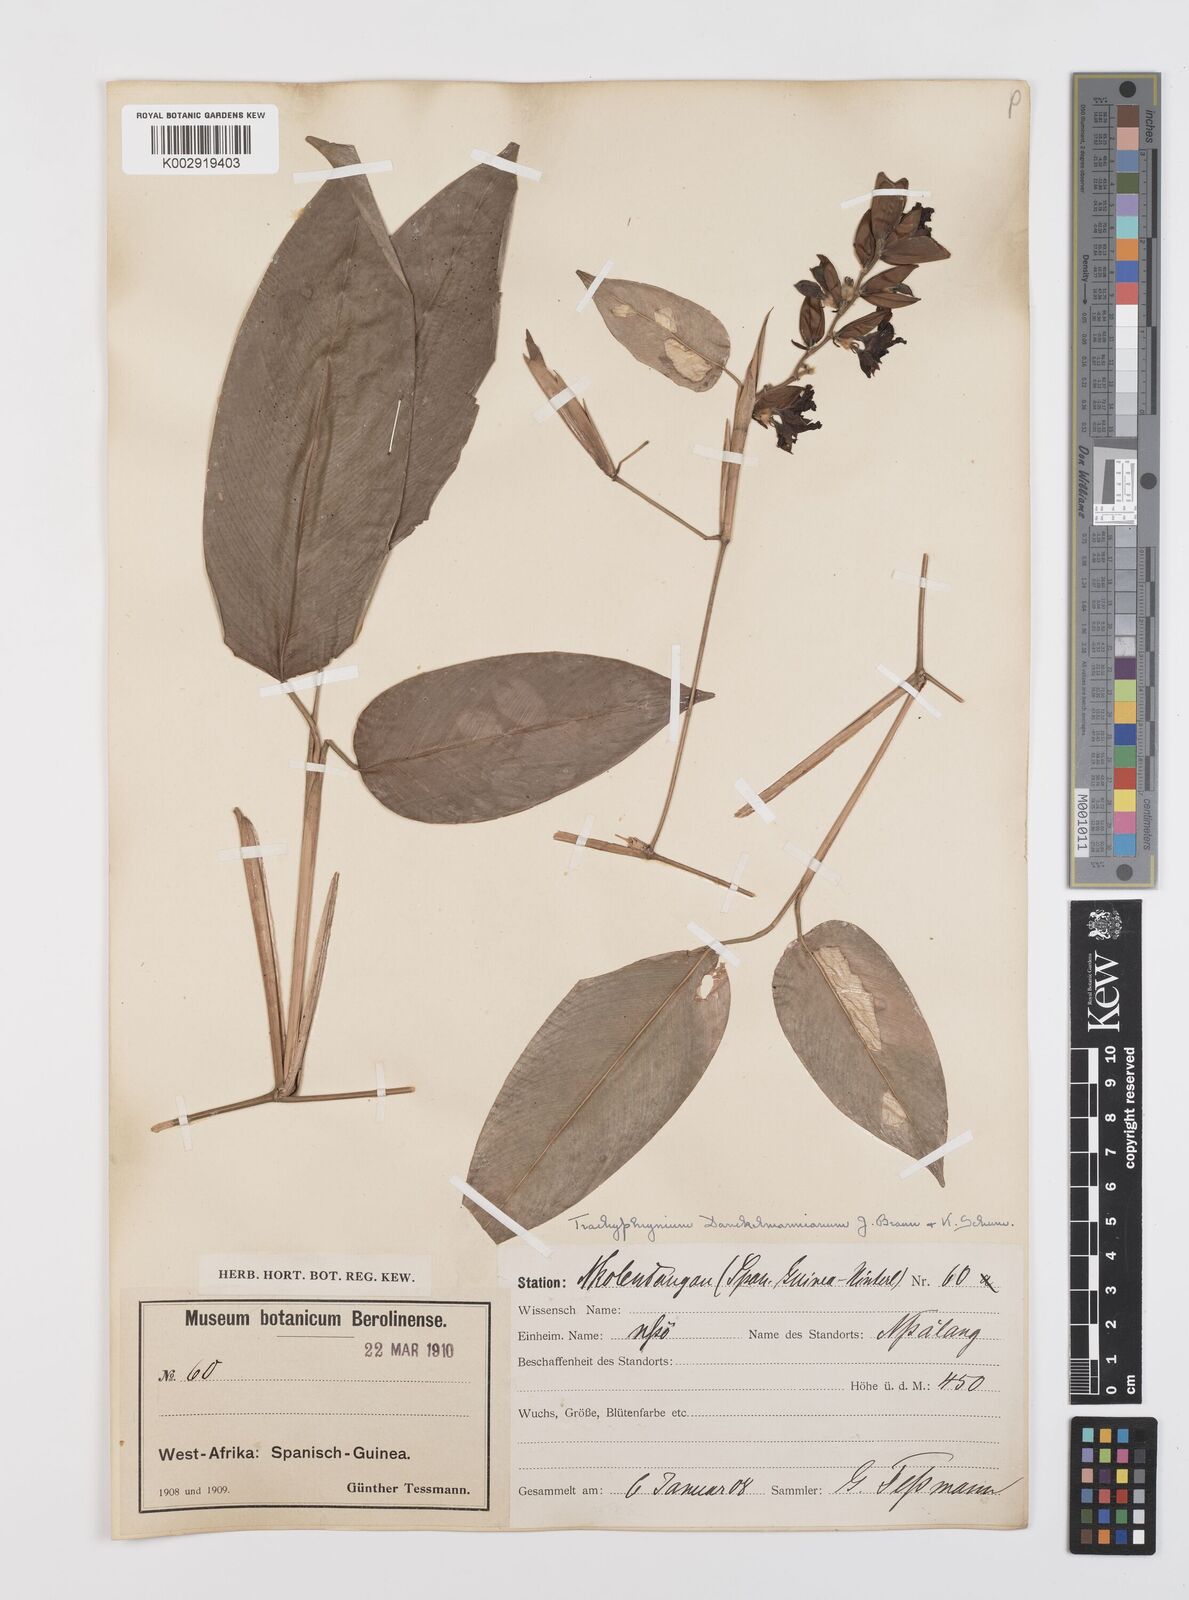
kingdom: Plantae
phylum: Tracheophyta
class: Liliopsida
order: Zingiberales
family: Marantaceae
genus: Haumania
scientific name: Haumania danckelmaniana
